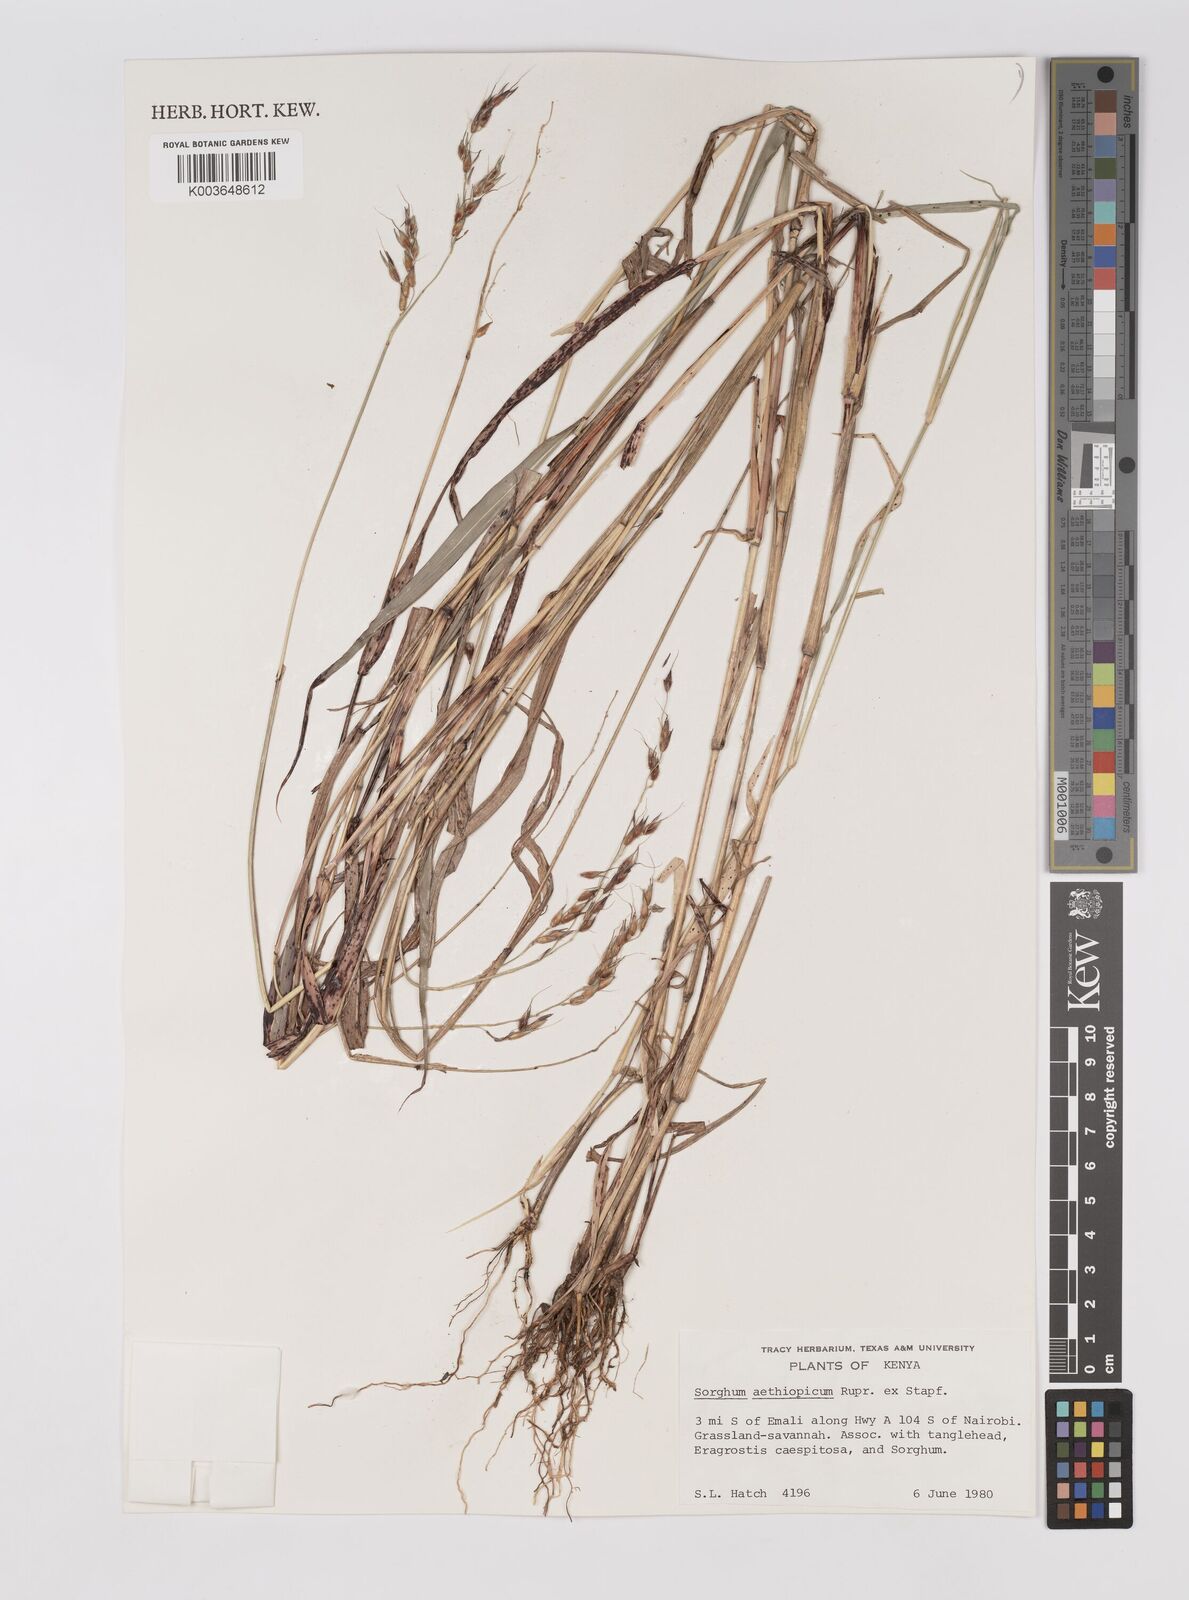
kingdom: Plantae
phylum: Tracheophyta
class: Liliopsida
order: Poales
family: Poaceae
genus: Sorghum
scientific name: Sorghum arundinaceum
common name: Sorghum
